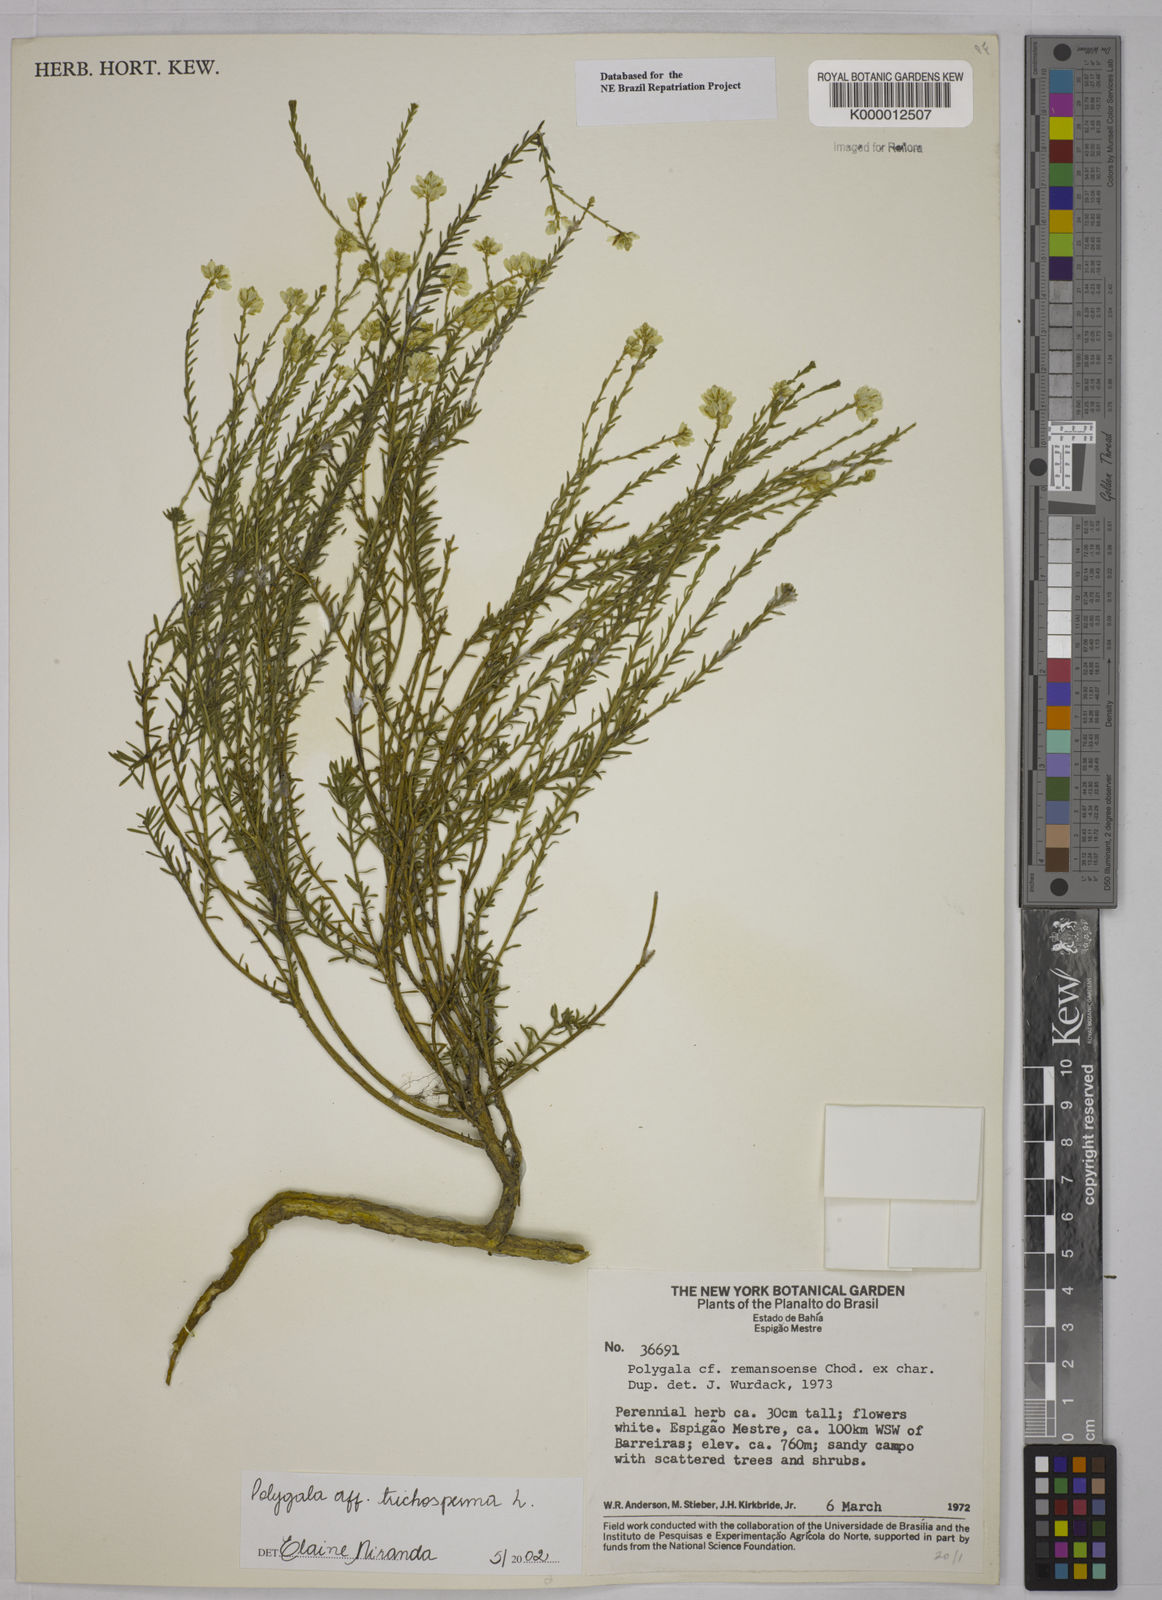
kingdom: Plantae
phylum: Tracheophyta
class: Magnoliopsida
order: Fabales
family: Polygalaceae
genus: Polygala
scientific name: Polygala
